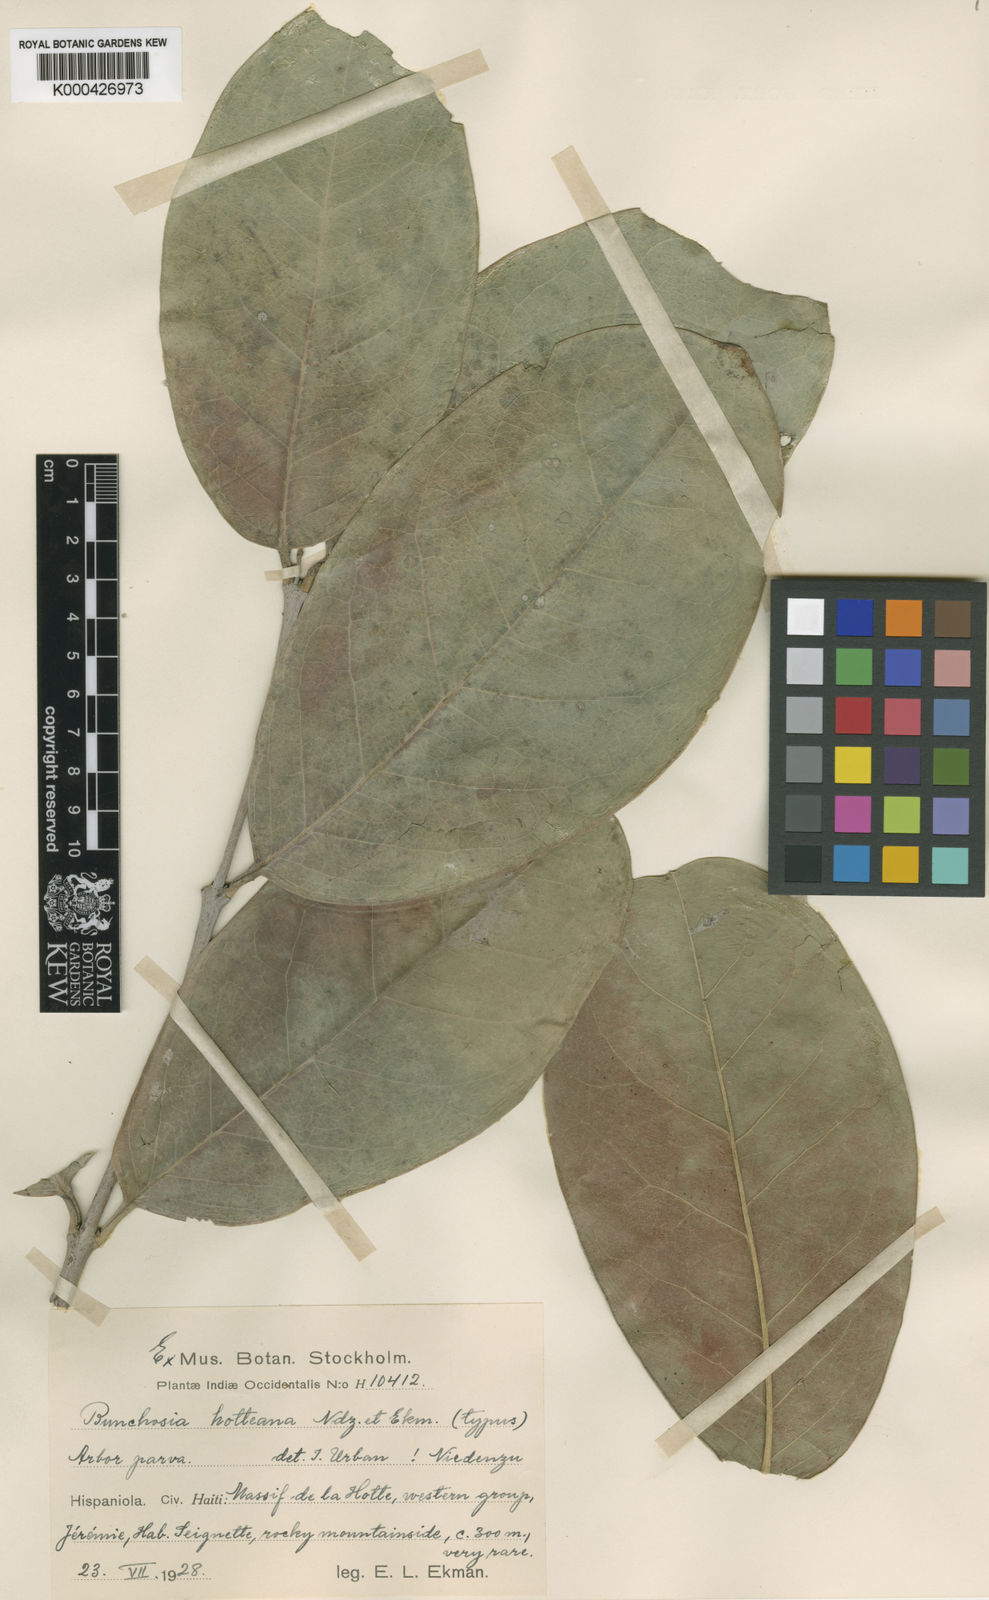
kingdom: Plantae
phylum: Tracheophyta
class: Magnoliopsida
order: Malpighiales
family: Malpighiaceae
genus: Bunchosia
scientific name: Bunchosia hotteana
